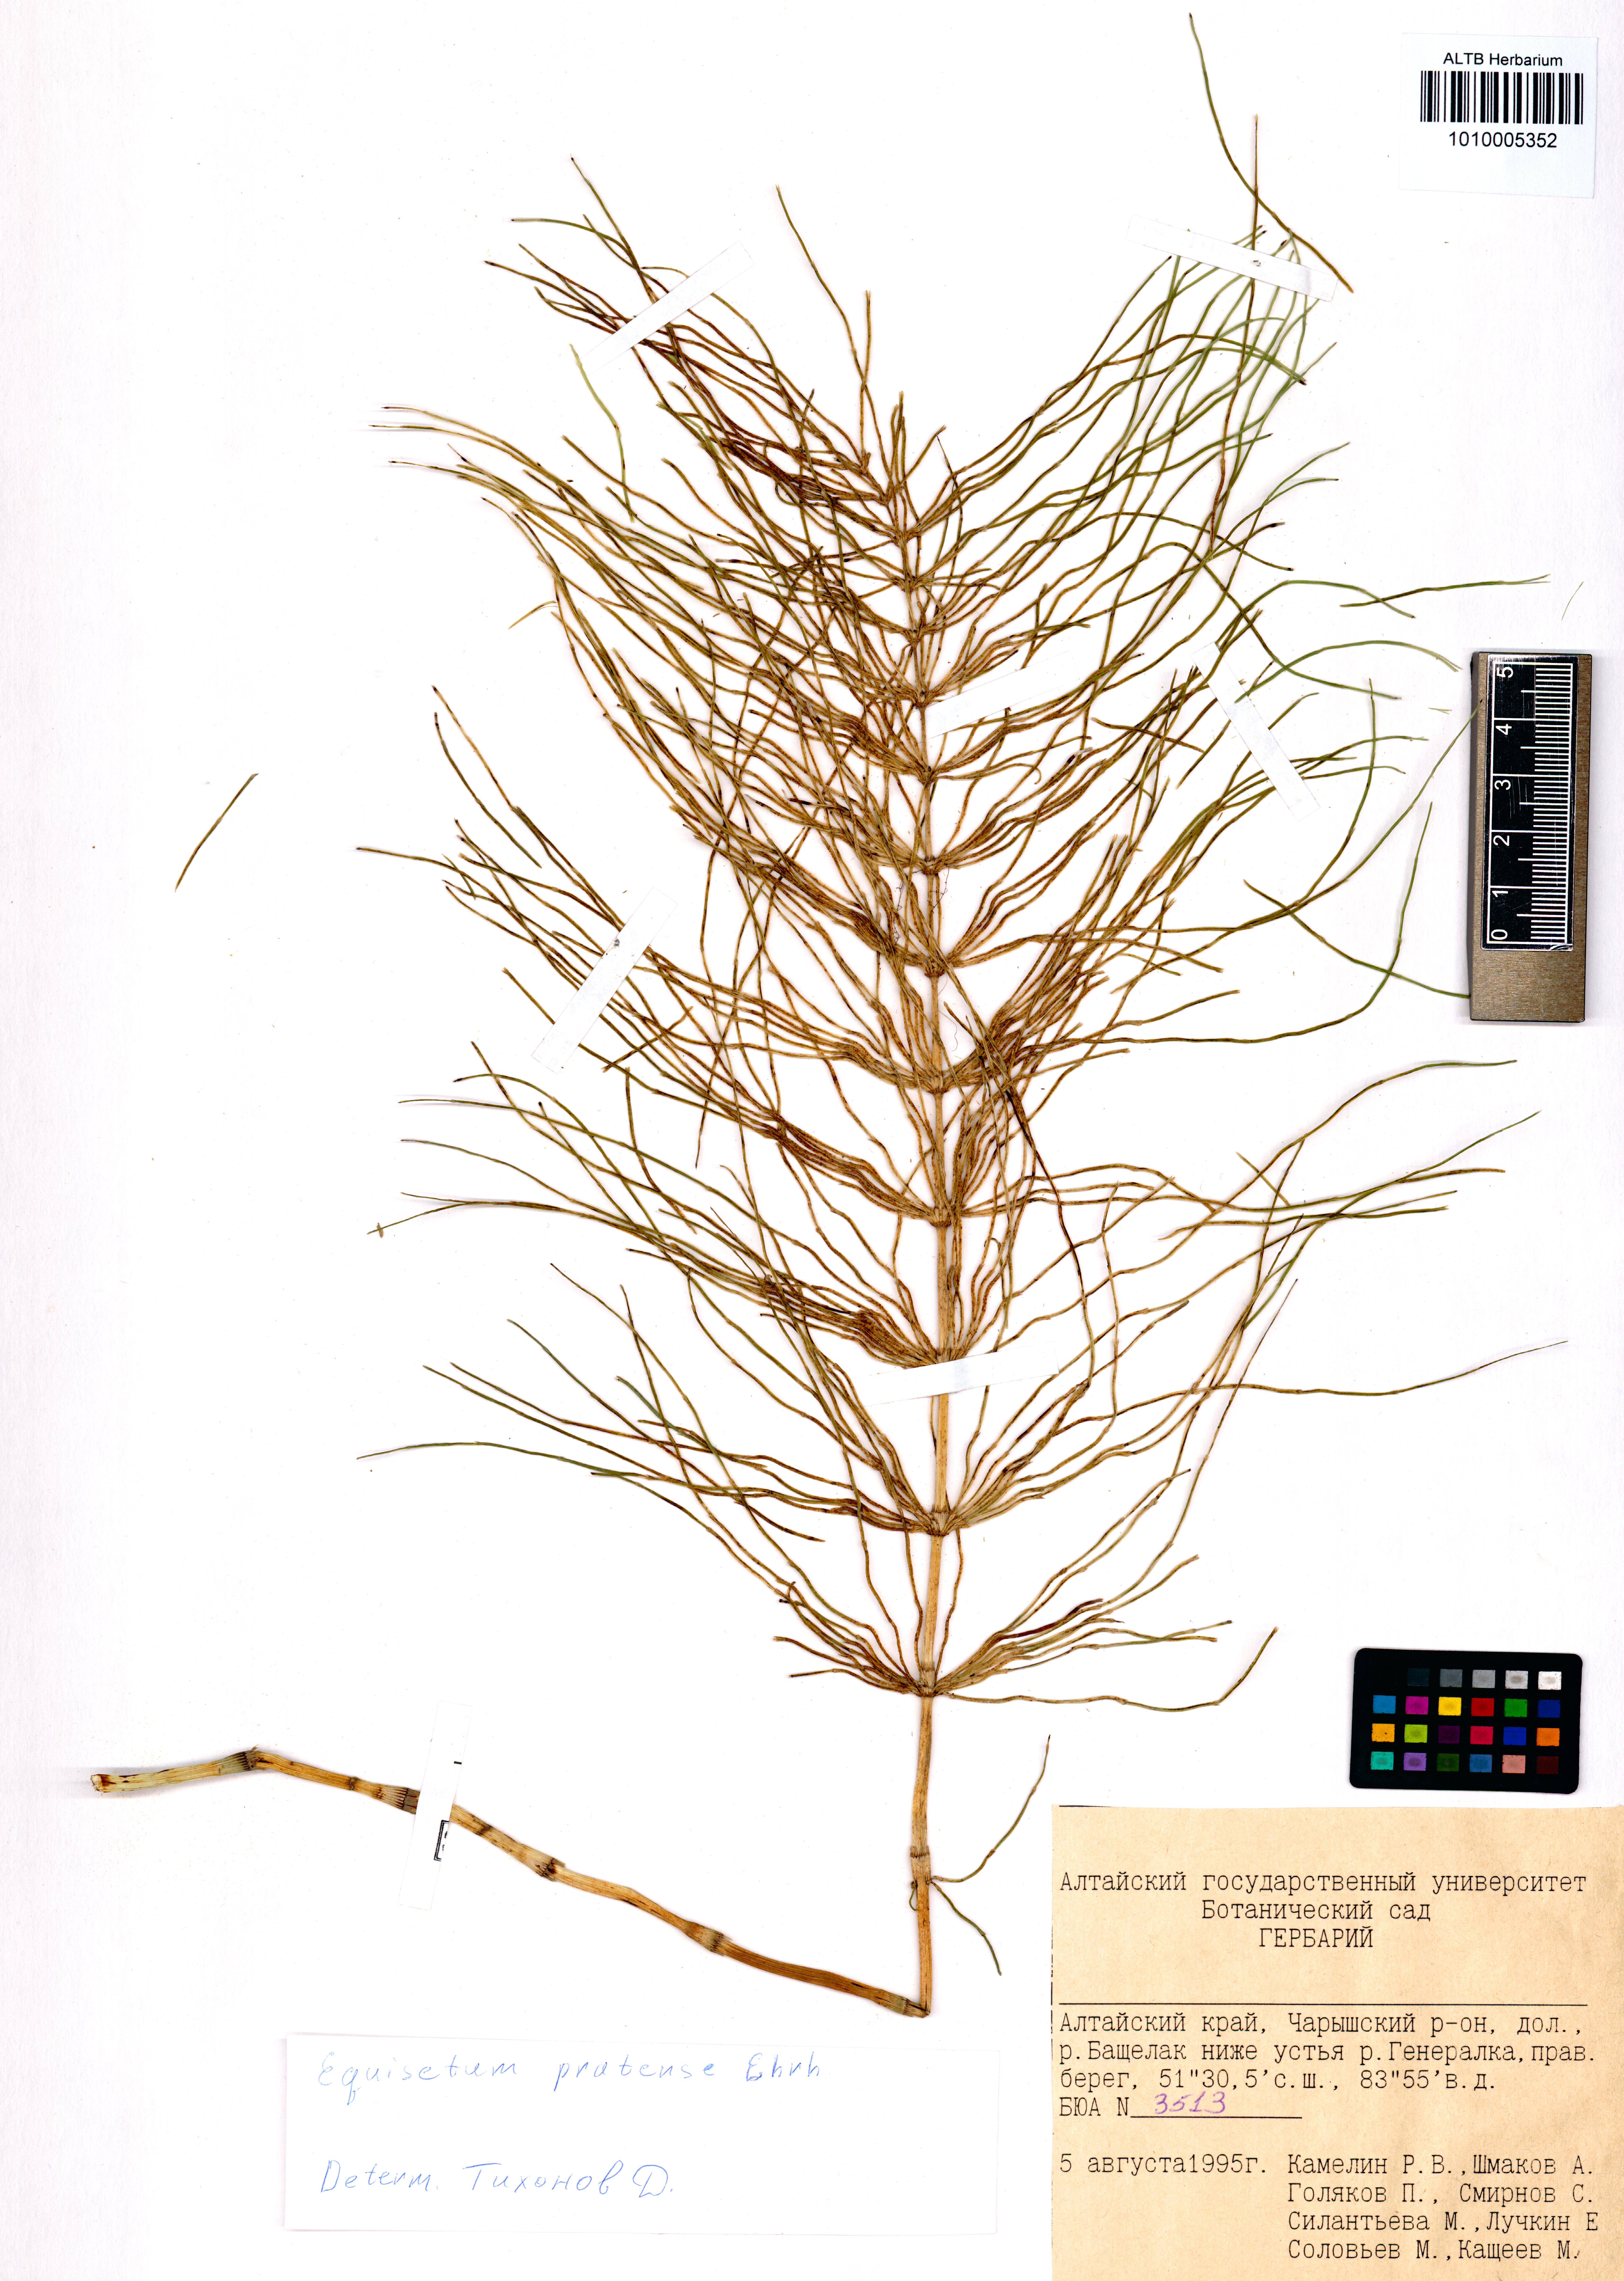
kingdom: Plantae
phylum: Tracheophyta
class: Polypodiopsida
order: Equisetales
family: Equisetaceae
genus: Equisetum
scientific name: Equisetum pratense
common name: Meadow horsetail
